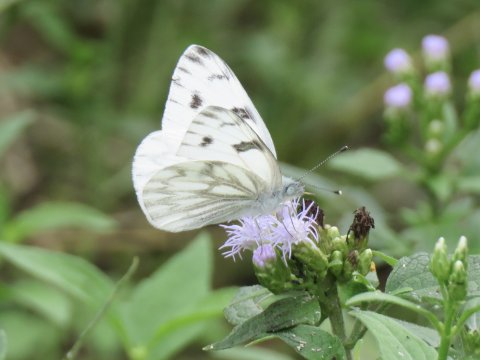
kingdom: Animalia
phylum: Arthropoda
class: Insecta
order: Lepidoptera
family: Pieridae
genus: Pontia
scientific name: Pontia protodice
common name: Checkered White
